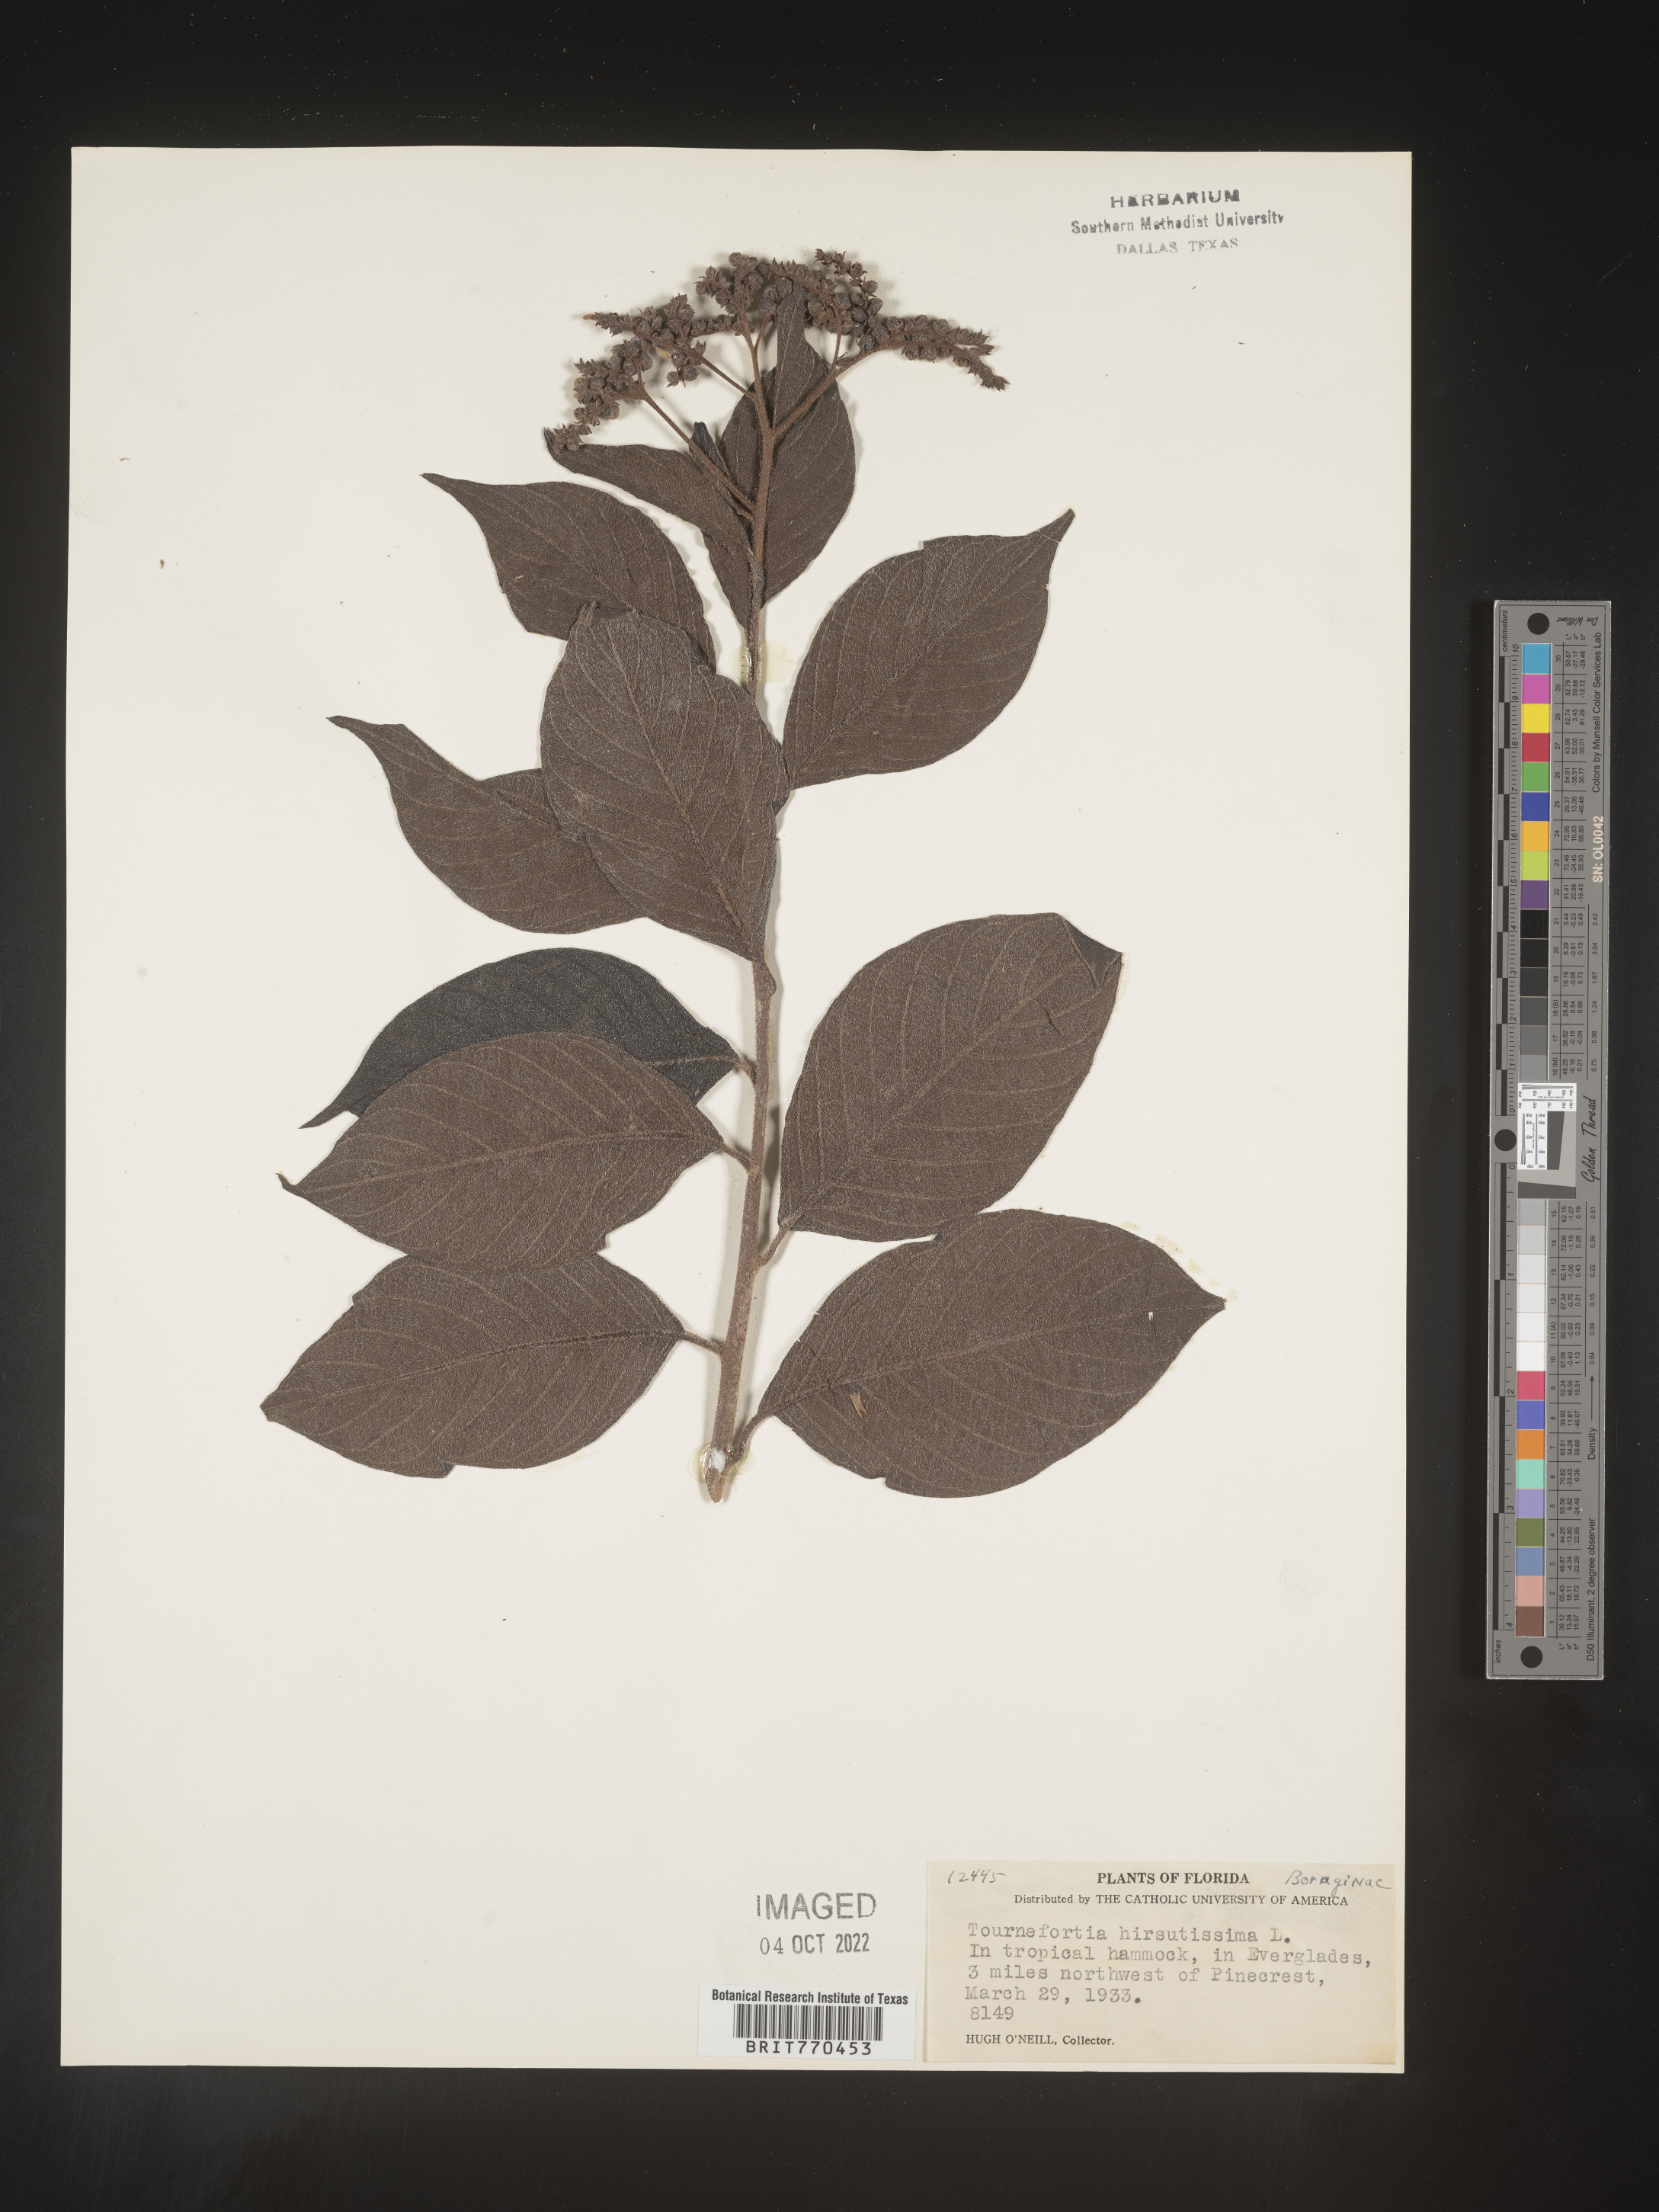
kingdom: Plantae
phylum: Tracheophyta
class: Magnoliopsida
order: Boraginales
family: Heliotropiaceae
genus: Tournefortia
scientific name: Tournefortia
